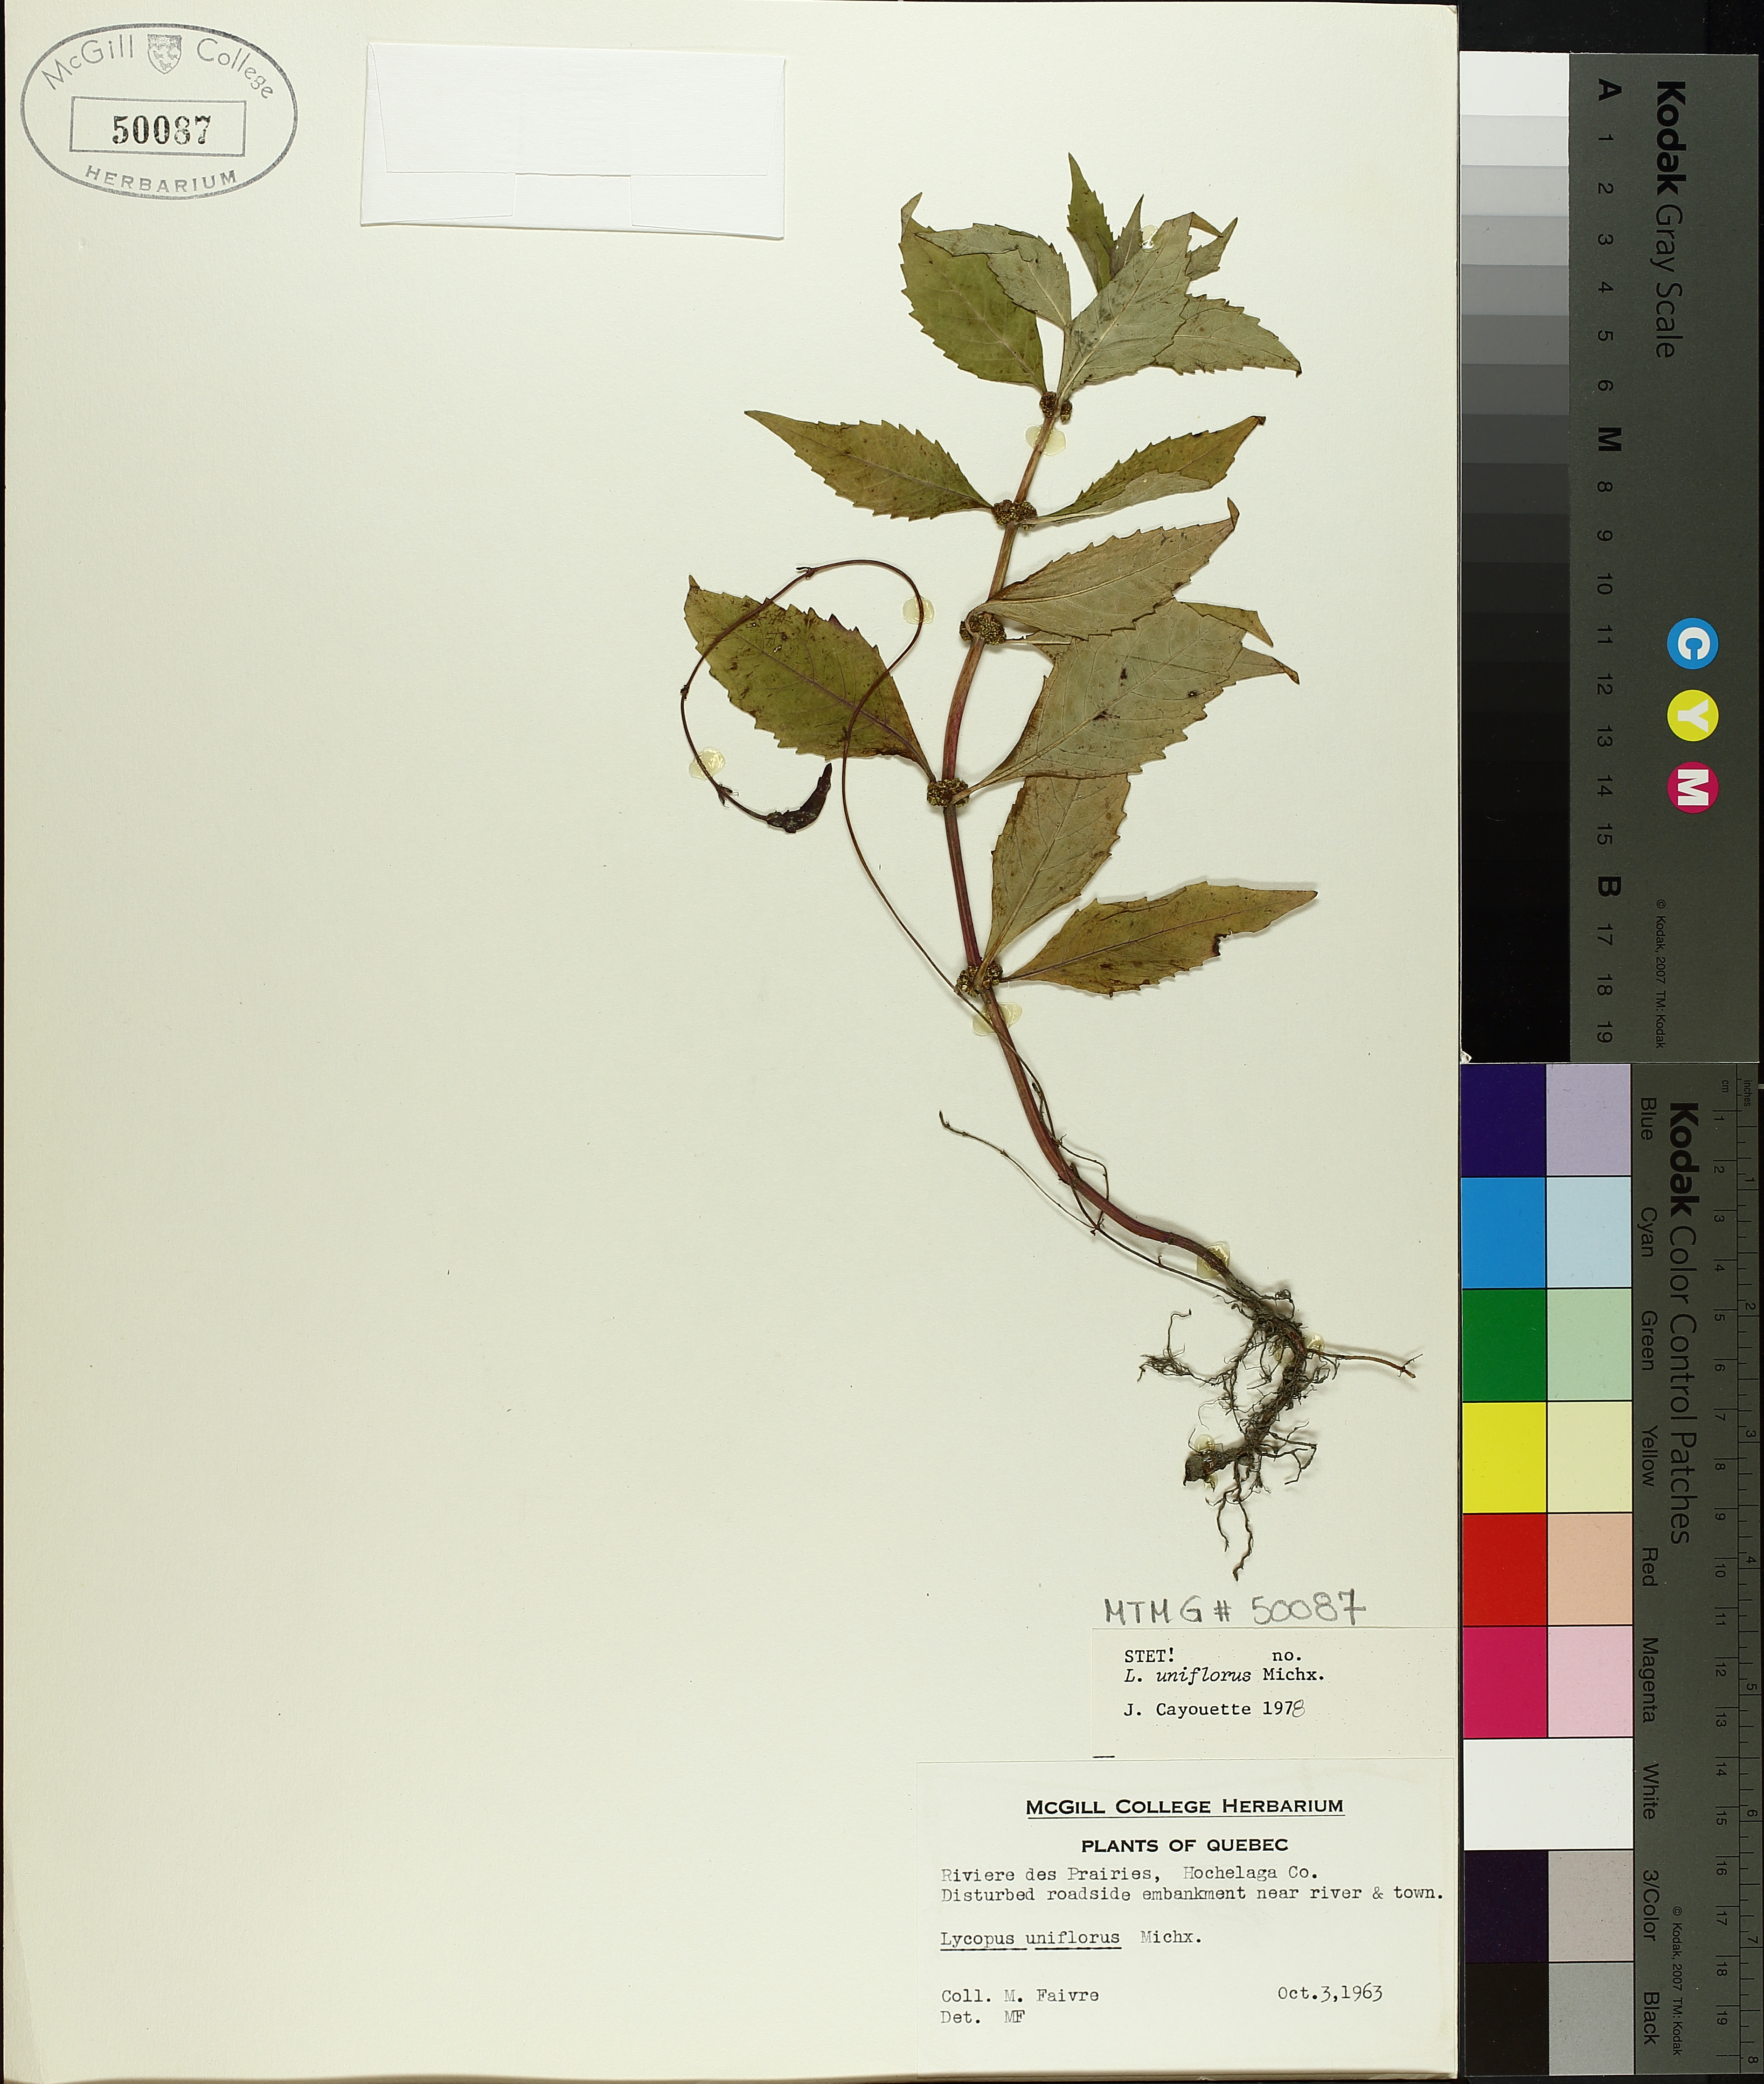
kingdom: Plantae
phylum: Tracheophyta
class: Magnoliopsida
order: Lamiales
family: Lamiaceae
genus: Lycopus
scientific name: Lycopus uniflorus
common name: Northern bugleweed
